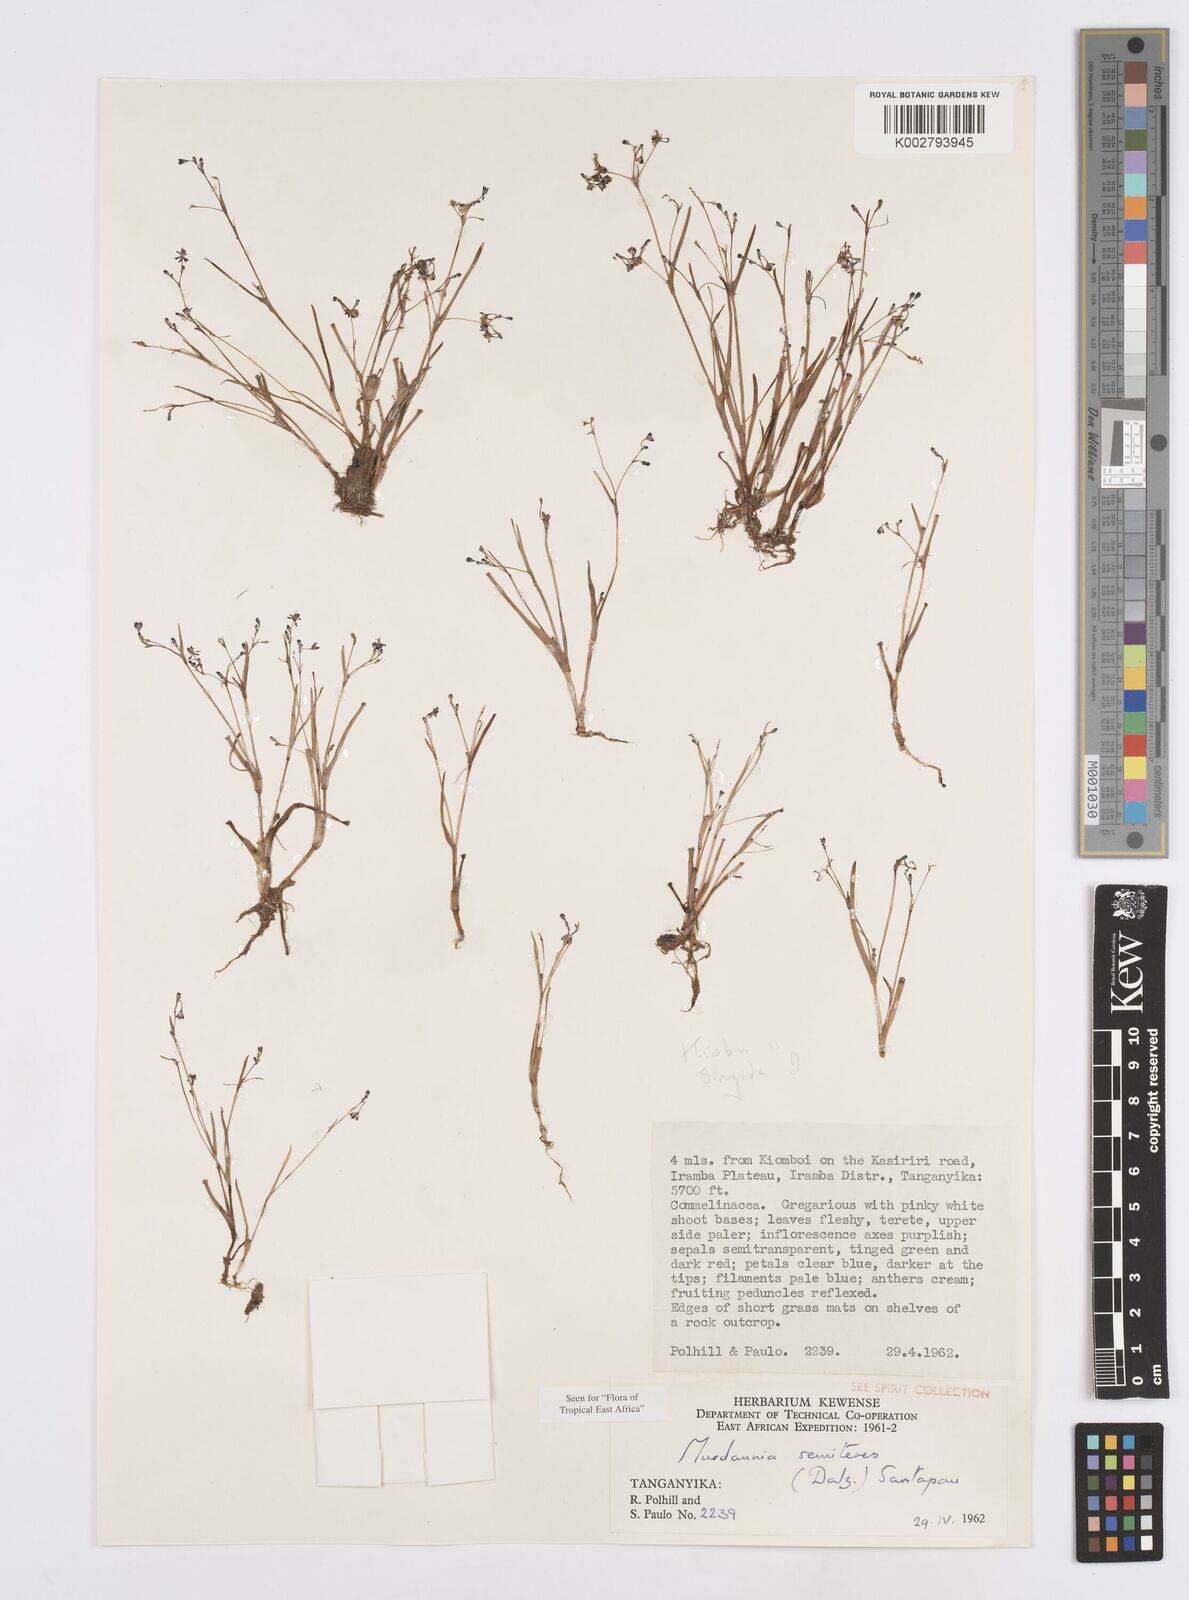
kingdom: Plantae
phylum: Tracheophyta
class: Liliopsida
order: Commelinales
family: Commelinaceae
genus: Murdannia
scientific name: Murdannia semiteres
